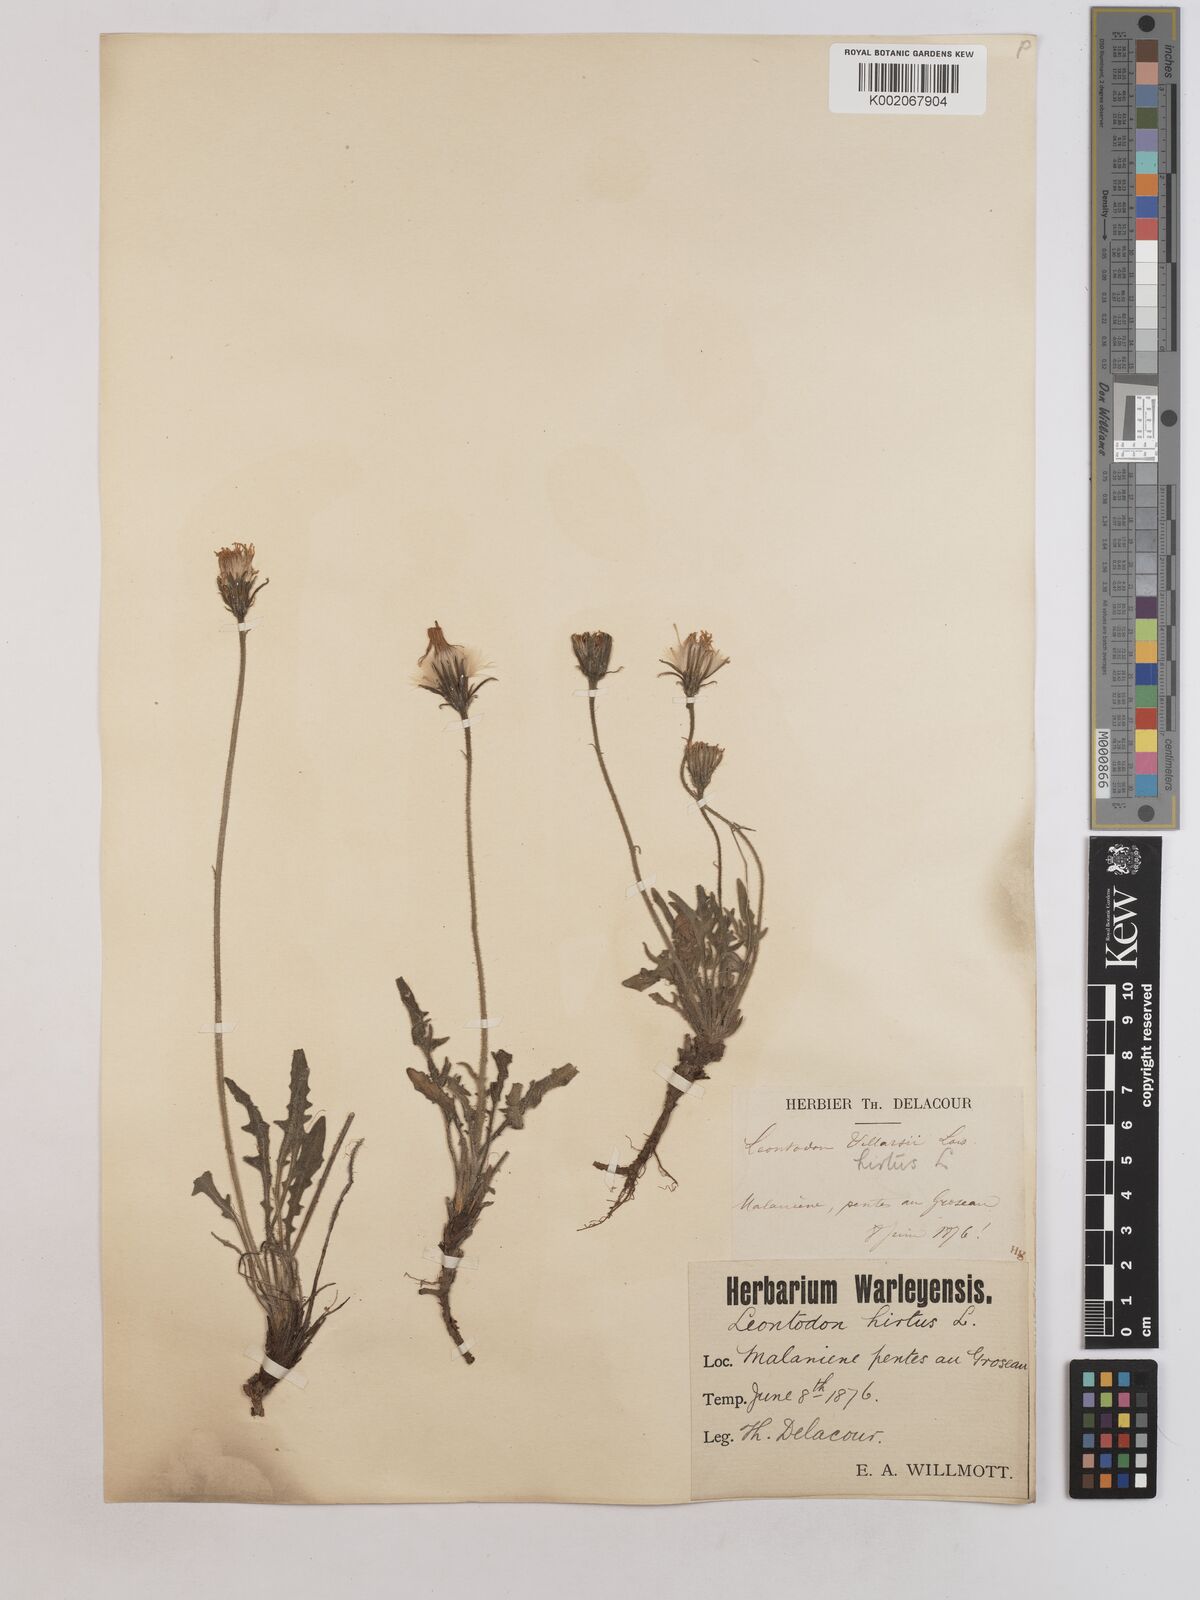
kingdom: Plantae
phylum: Tracheophyta
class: Magnoliopsida
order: Asterales
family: Asteraceae
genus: Leontodon
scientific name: Leontodon hirtus
